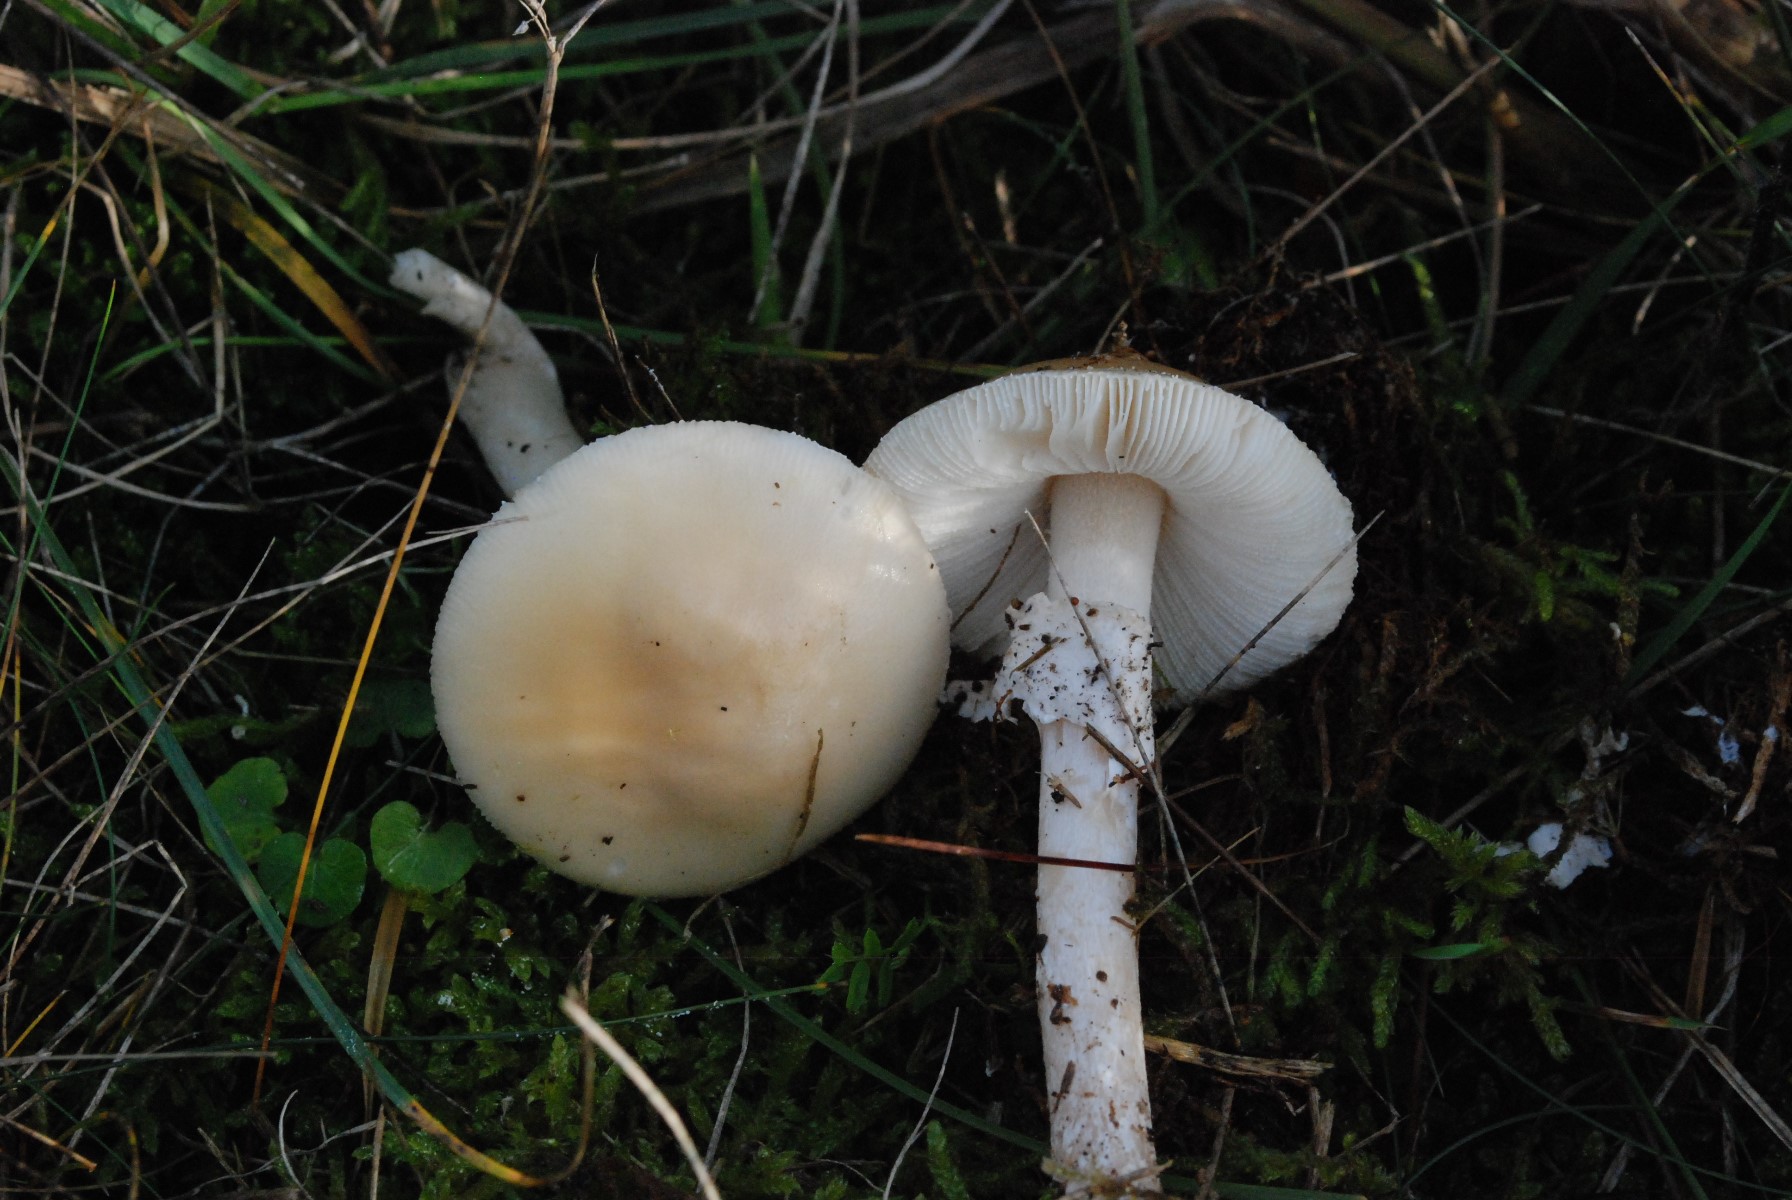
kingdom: Fungi
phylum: Basidiomycota
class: Agaricomycetes
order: Agaricales
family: Amanitaceae
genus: Amanita
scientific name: Amanita gemmata
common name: okkergul fluesvamp
